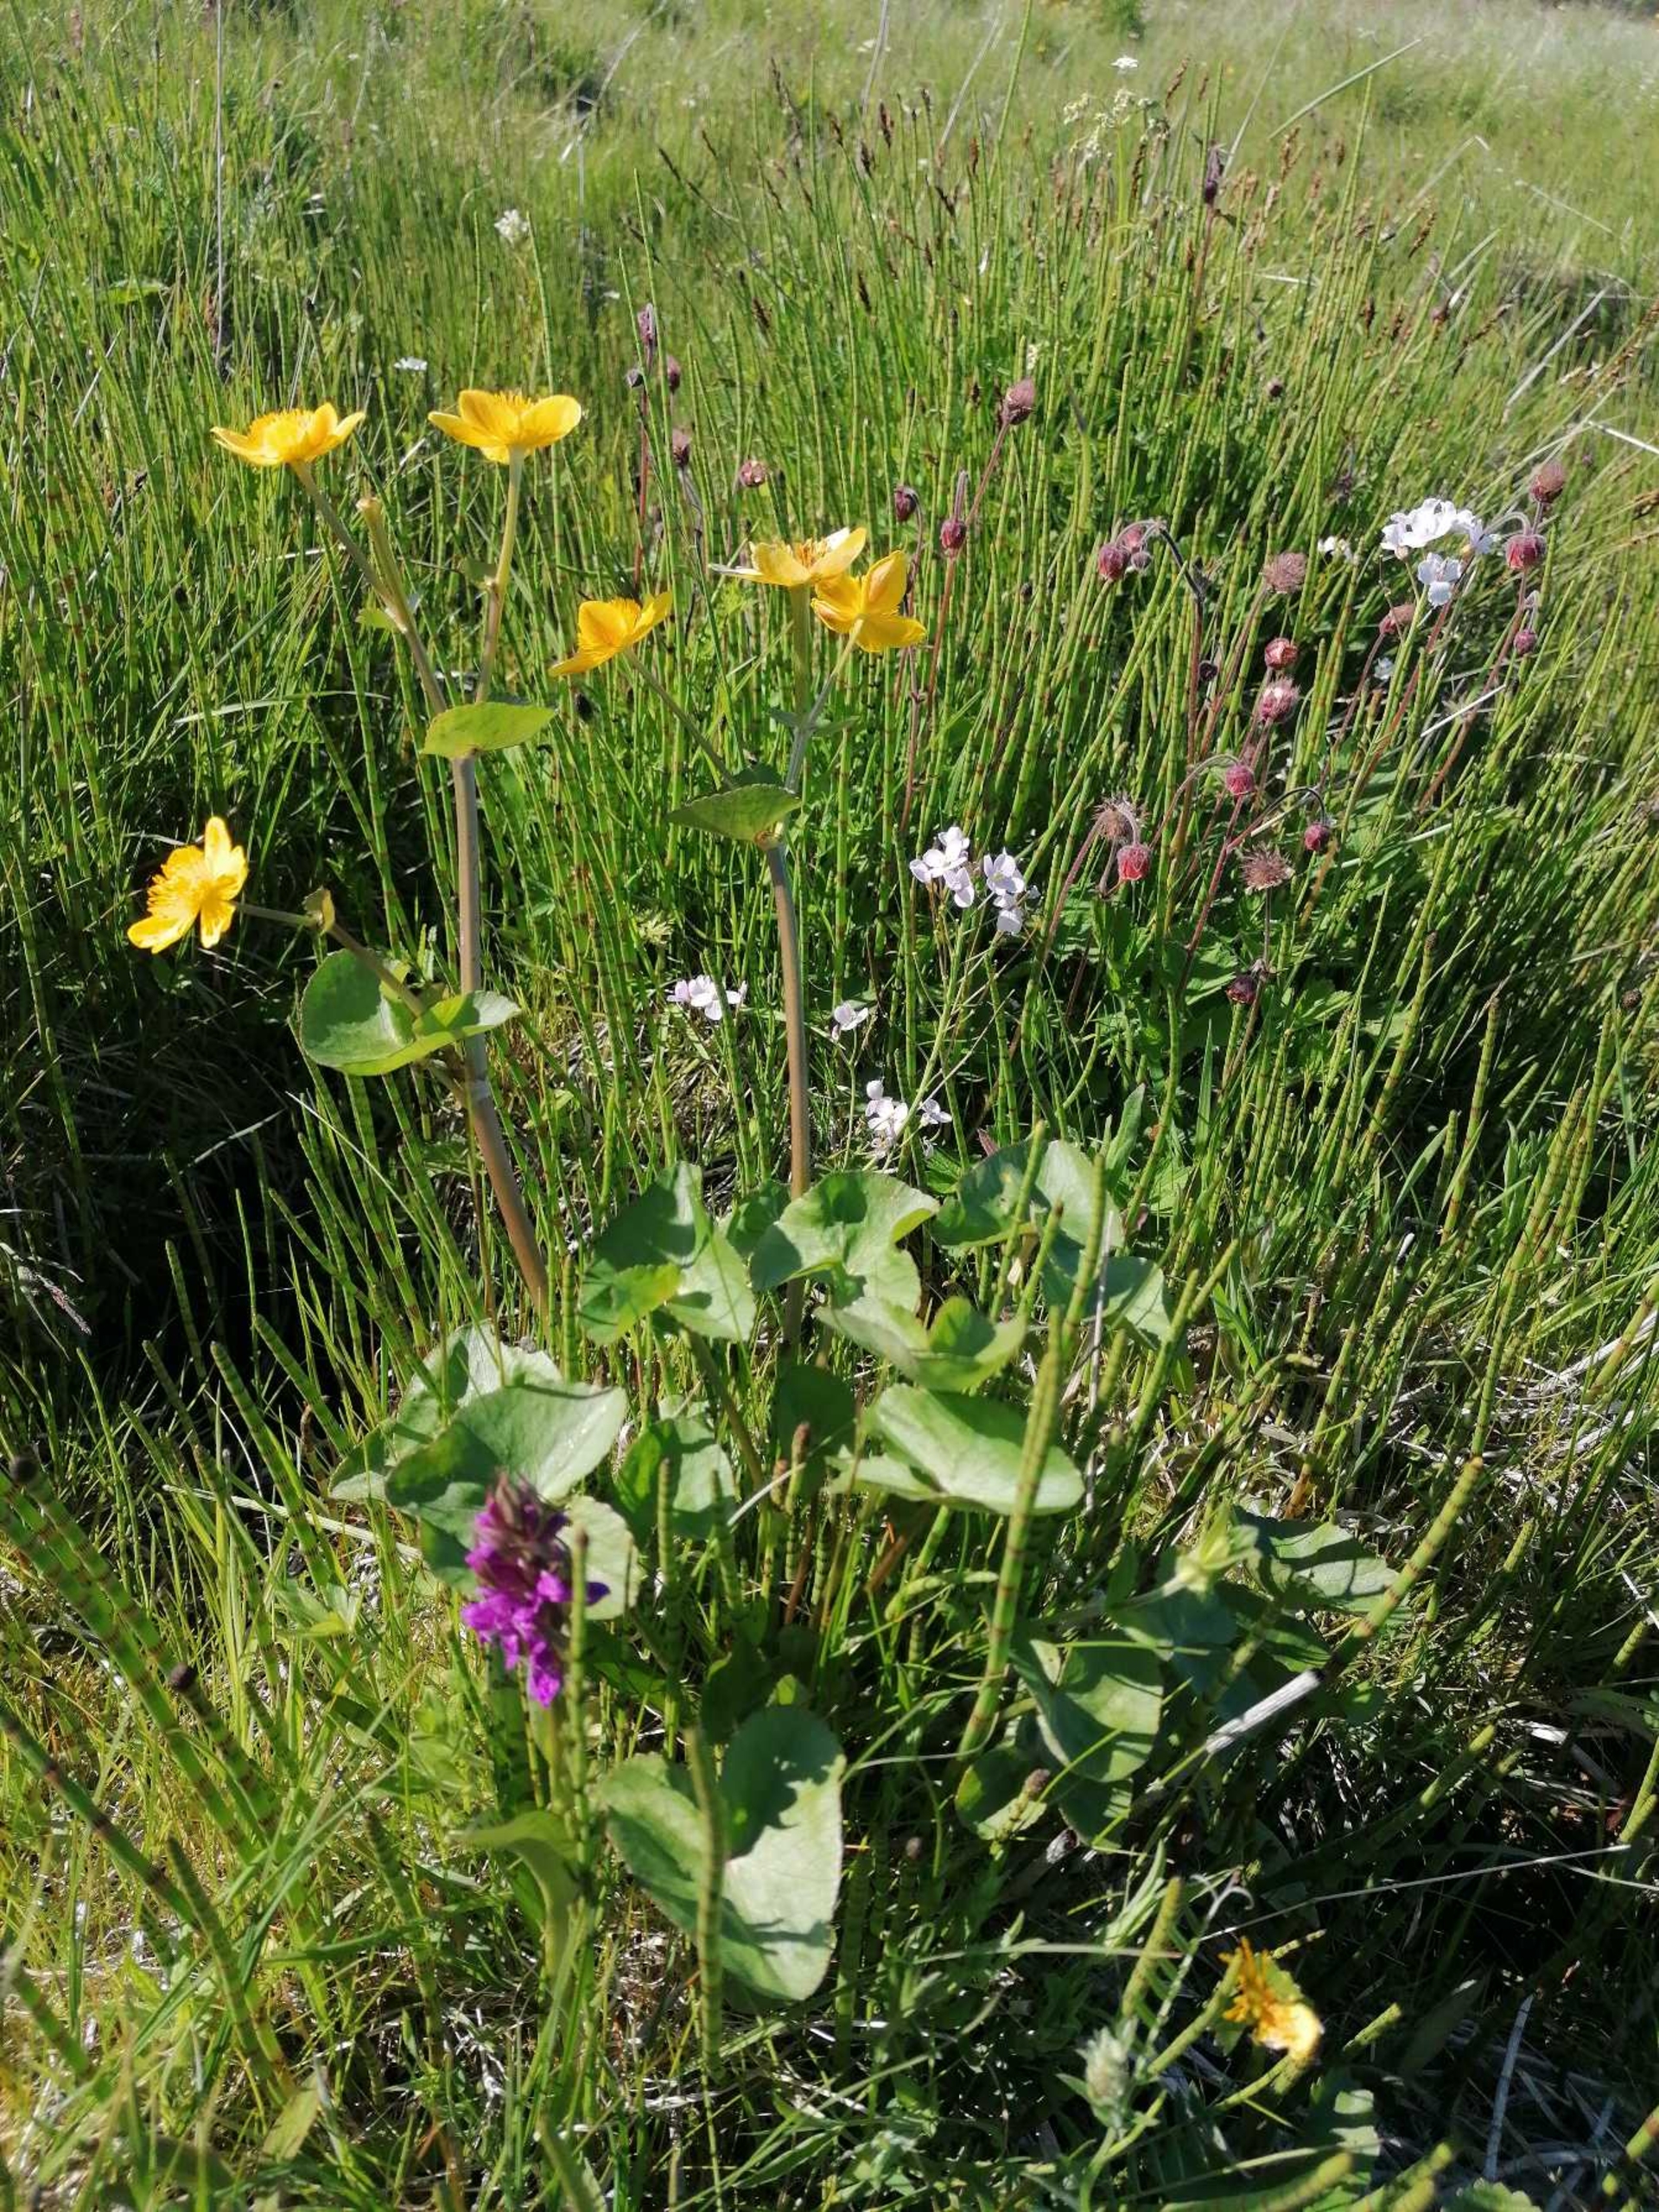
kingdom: Plantae
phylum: Tracheophyta
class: Polypodiopsida
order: Equisetales
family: Equisetaceae
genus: Equisetum
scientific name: Equisetum fluviatile
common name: Dynd-padderok
